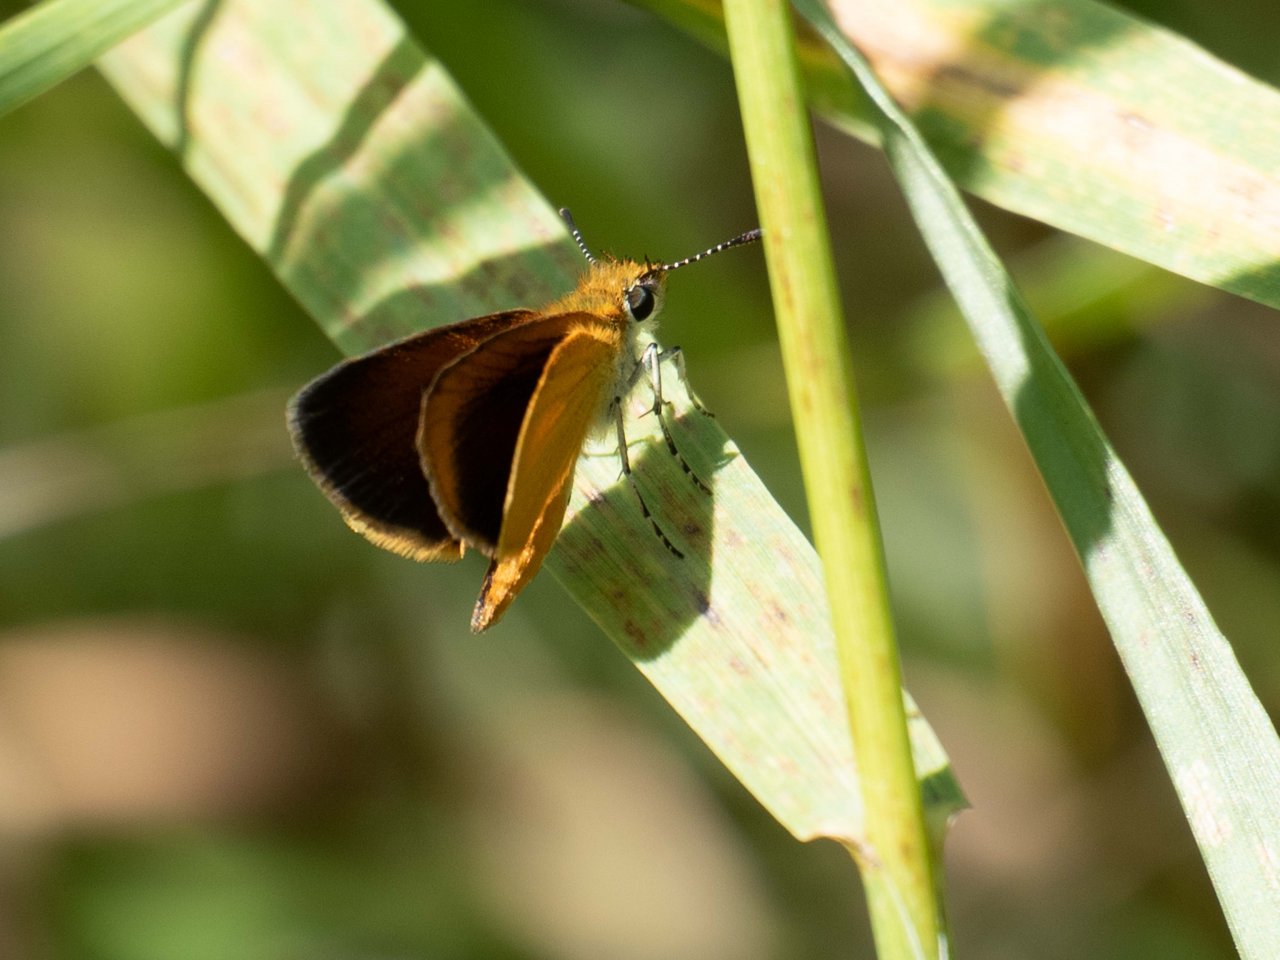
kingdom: Animalia
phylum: Arthropoda
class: Insecta
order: Lepidoptera
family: Hesperiidae
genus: Ancyloxypha
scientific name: Ancyloxypha numitor
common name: Least Skipper
